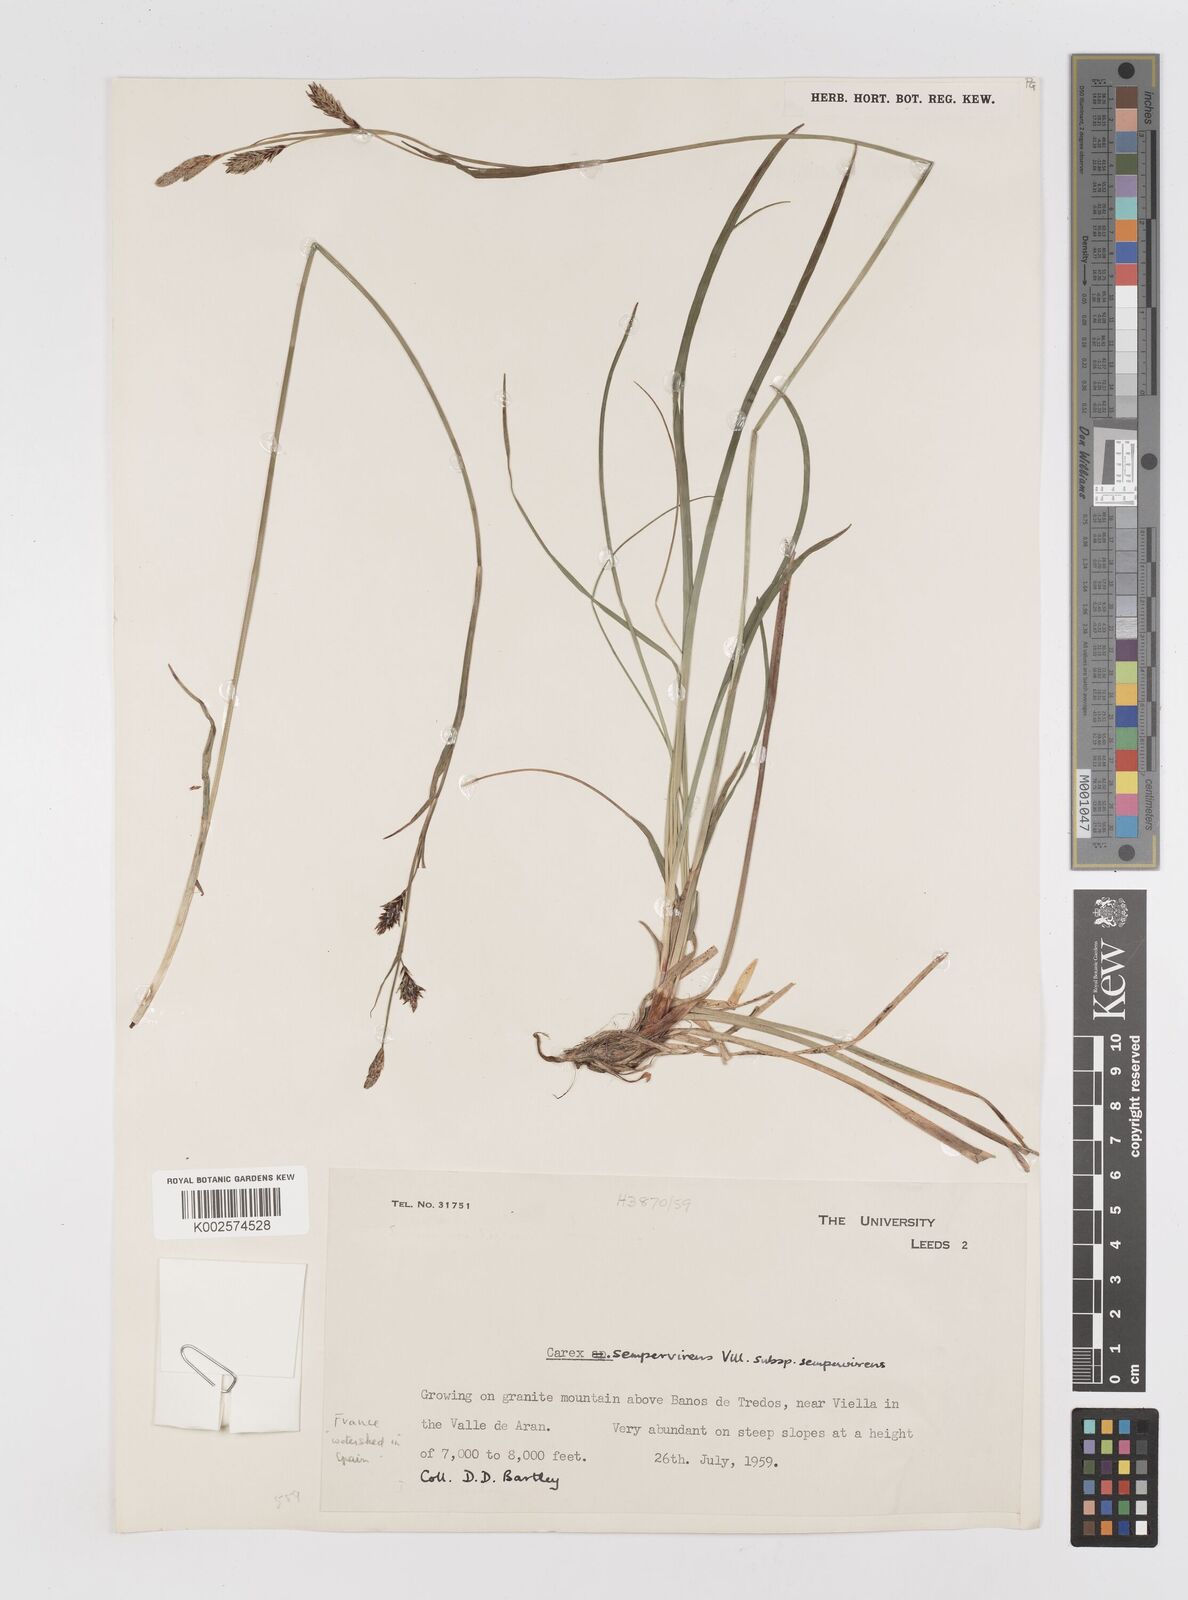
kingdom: Plantae
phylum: Tracheophyta
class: Liliopsida
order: Poales
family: Cyperaceae
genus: Carex
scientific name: Carex sempervirens
